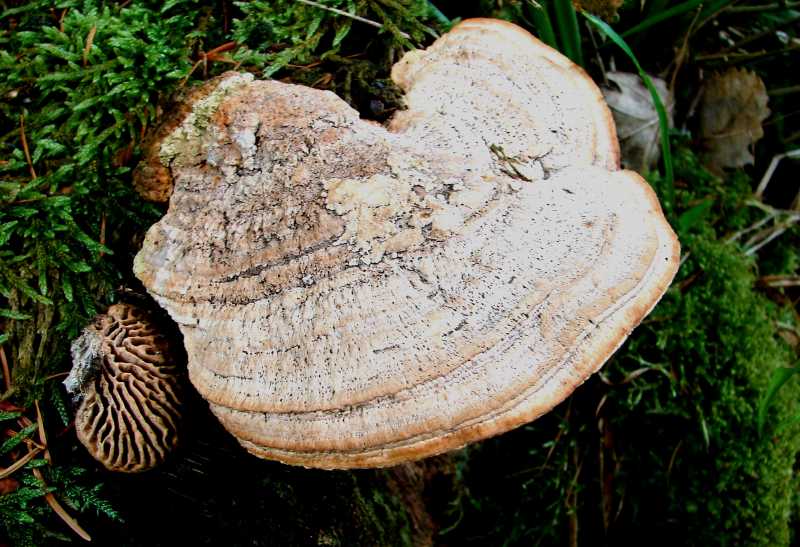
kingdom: Fungi
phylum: Basidiomycota
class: Agaricomycetes
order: Polyporales
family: Fomitopsidaceae
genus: Daedalea
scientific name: Daedalea quercina
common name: ege-labyrintsvamp
